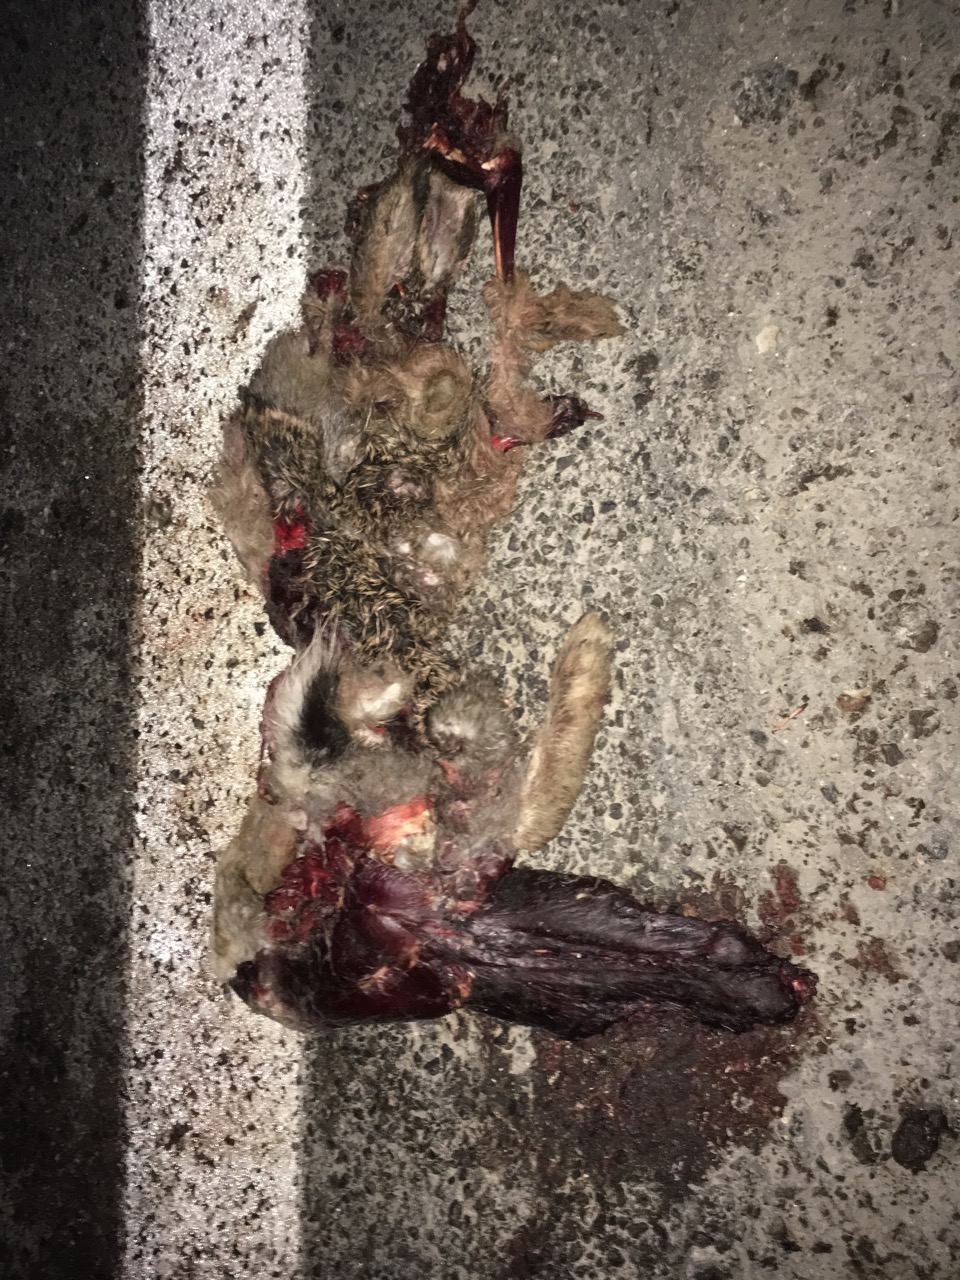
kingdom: Animalia
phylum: Chordata
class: Mammalia
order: Lagomorpha
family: Leporidae
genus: Lepus
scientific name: Lepus europaeus
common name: European hare
